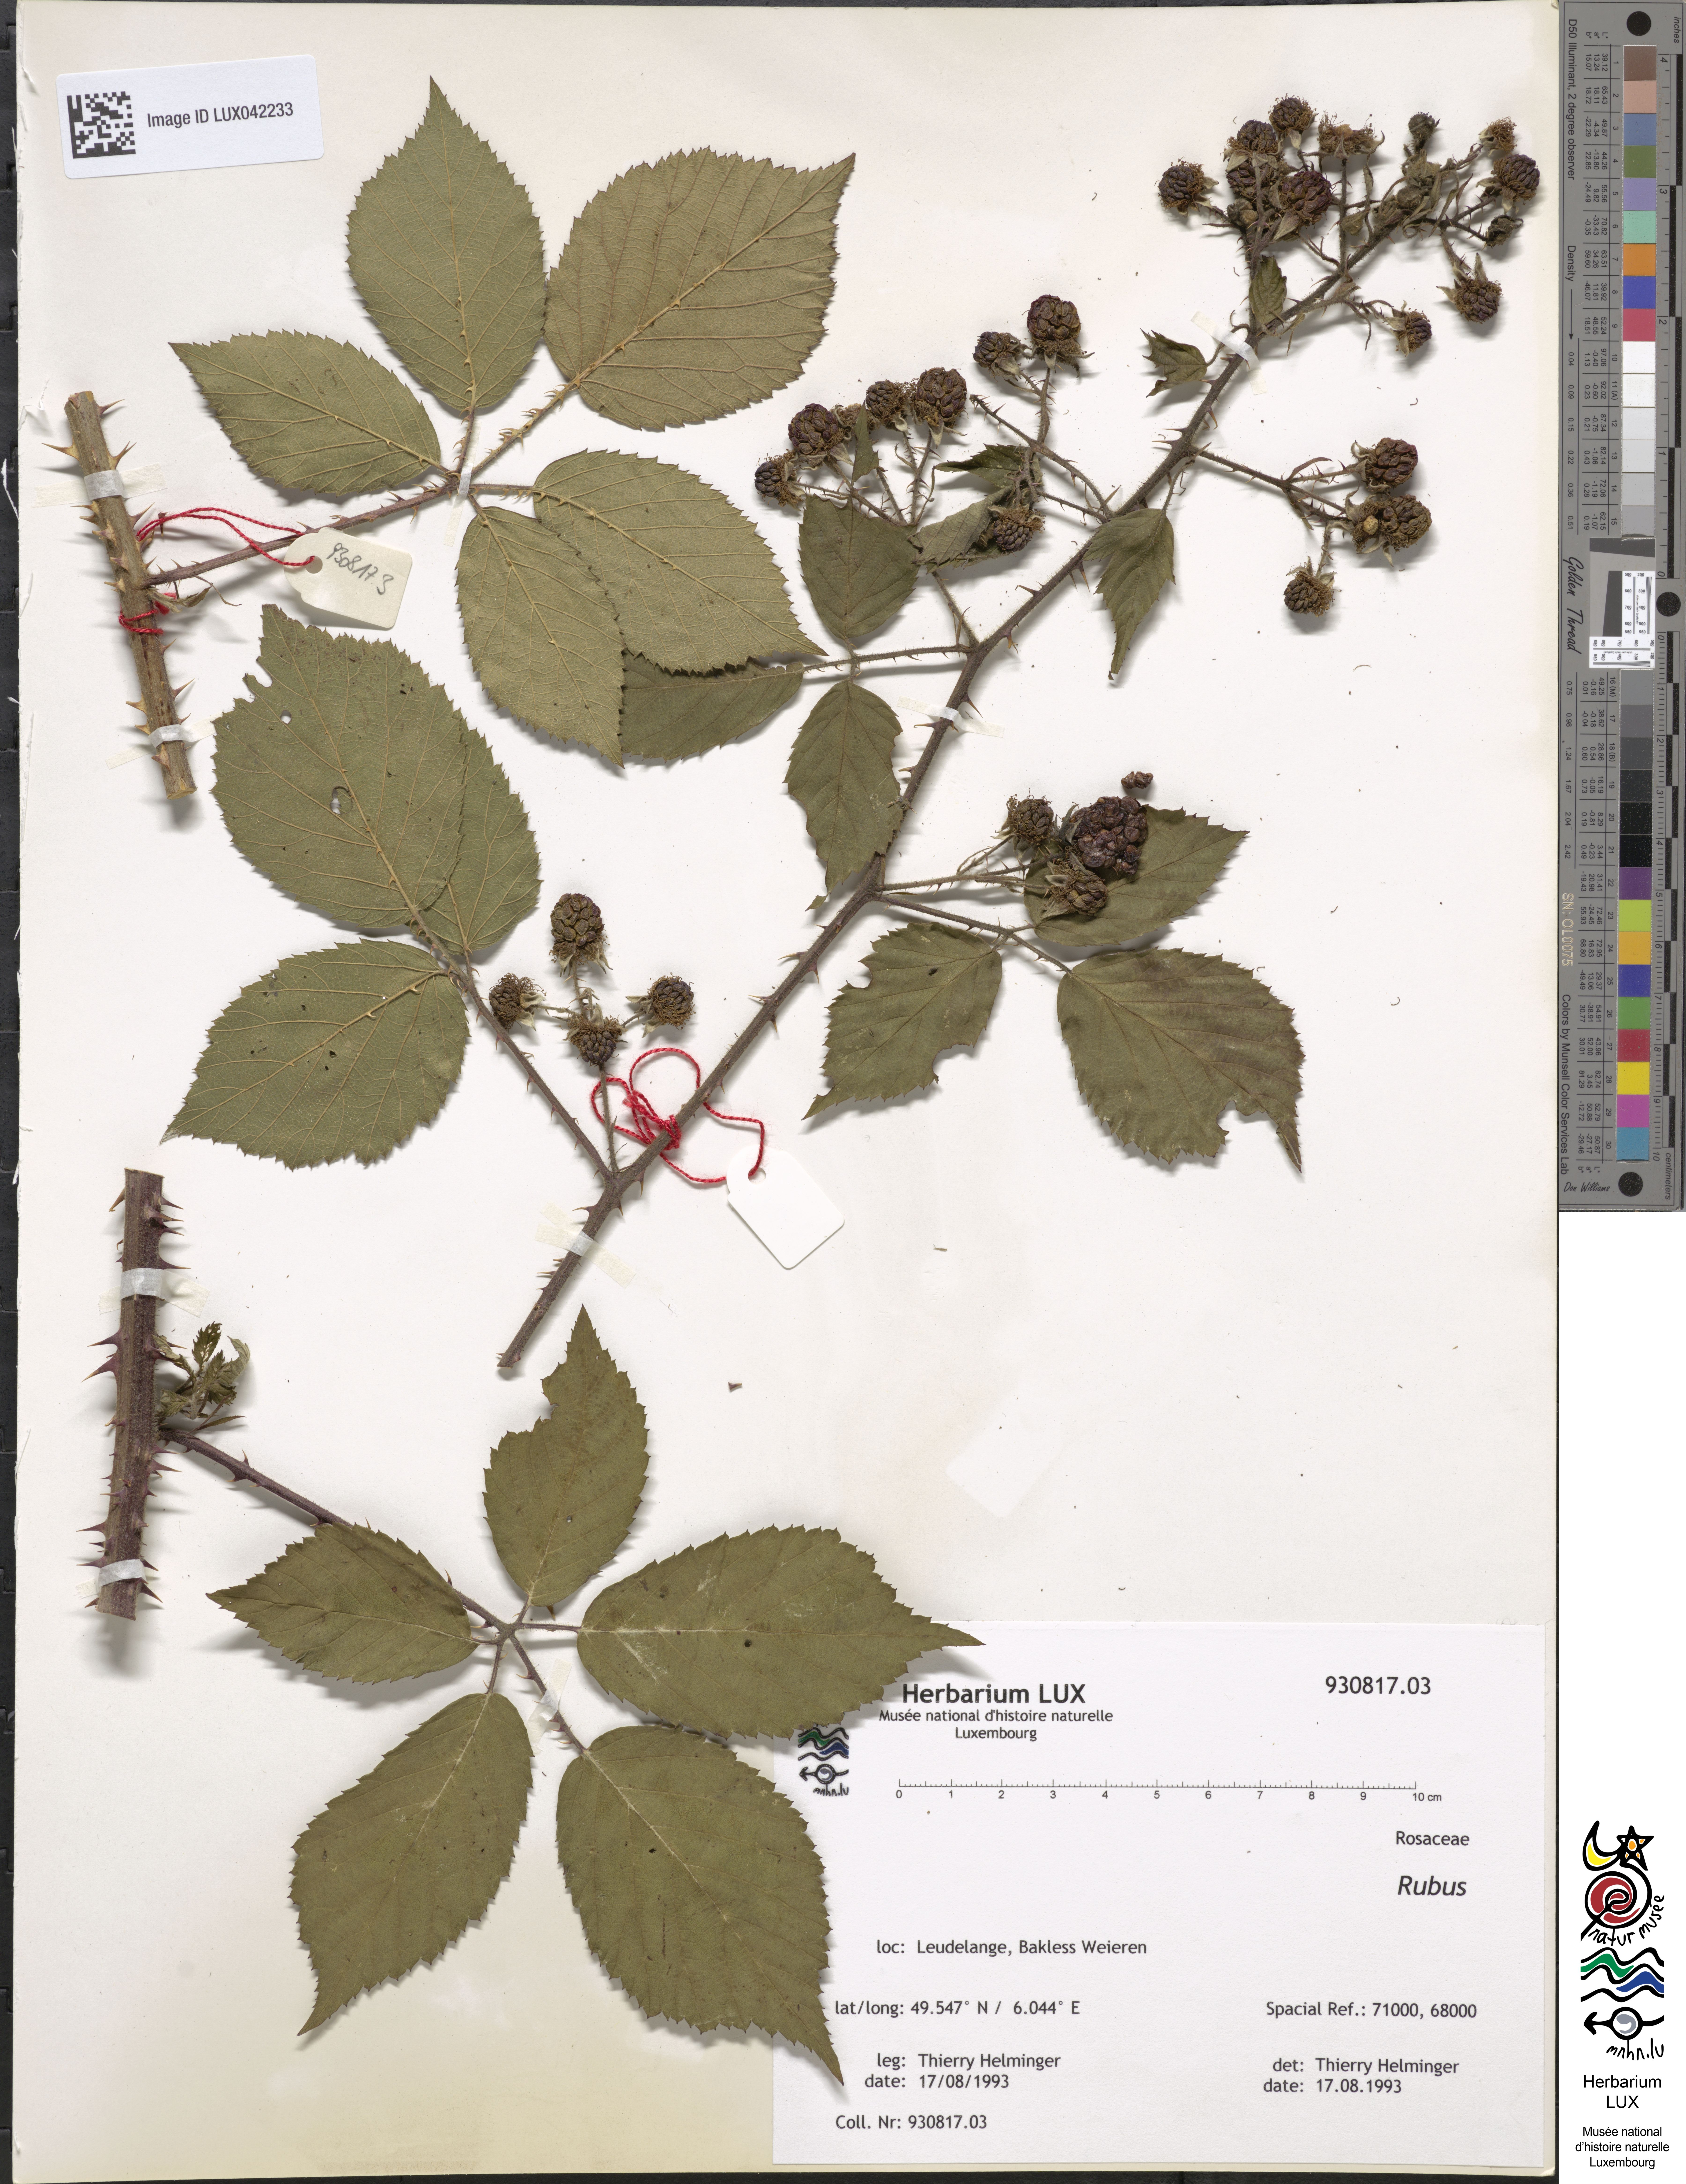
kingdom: Plantae
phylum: Tracheophyta
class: Magnoliopsida
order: Rosales
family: Rosaceae
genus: Rubus
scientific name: Rubus
